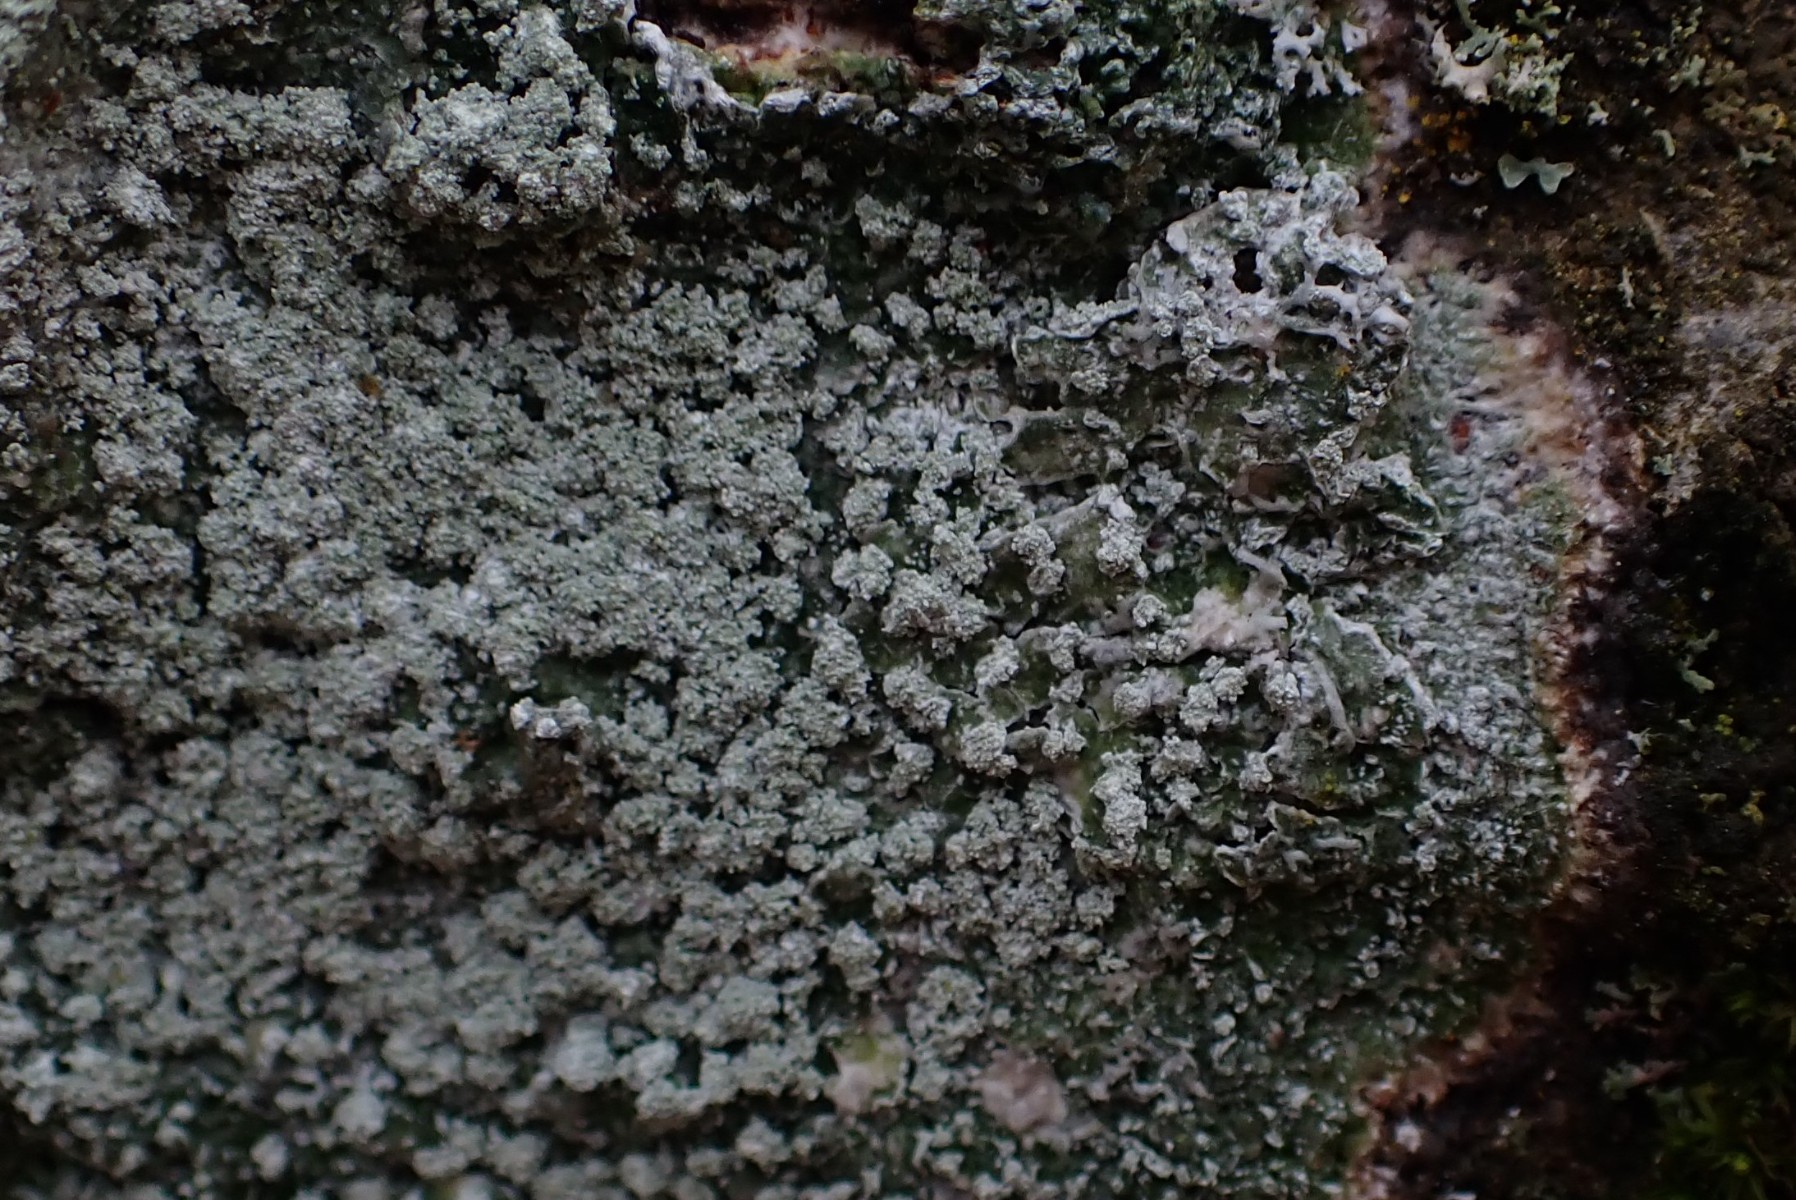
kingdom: Fungi
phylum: Ascomycota
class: Lecanoromycetes
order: Pertusariales
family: Pertusariaceae
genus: Lepra
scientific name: Lepra amara
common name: bitter prikvortelav
